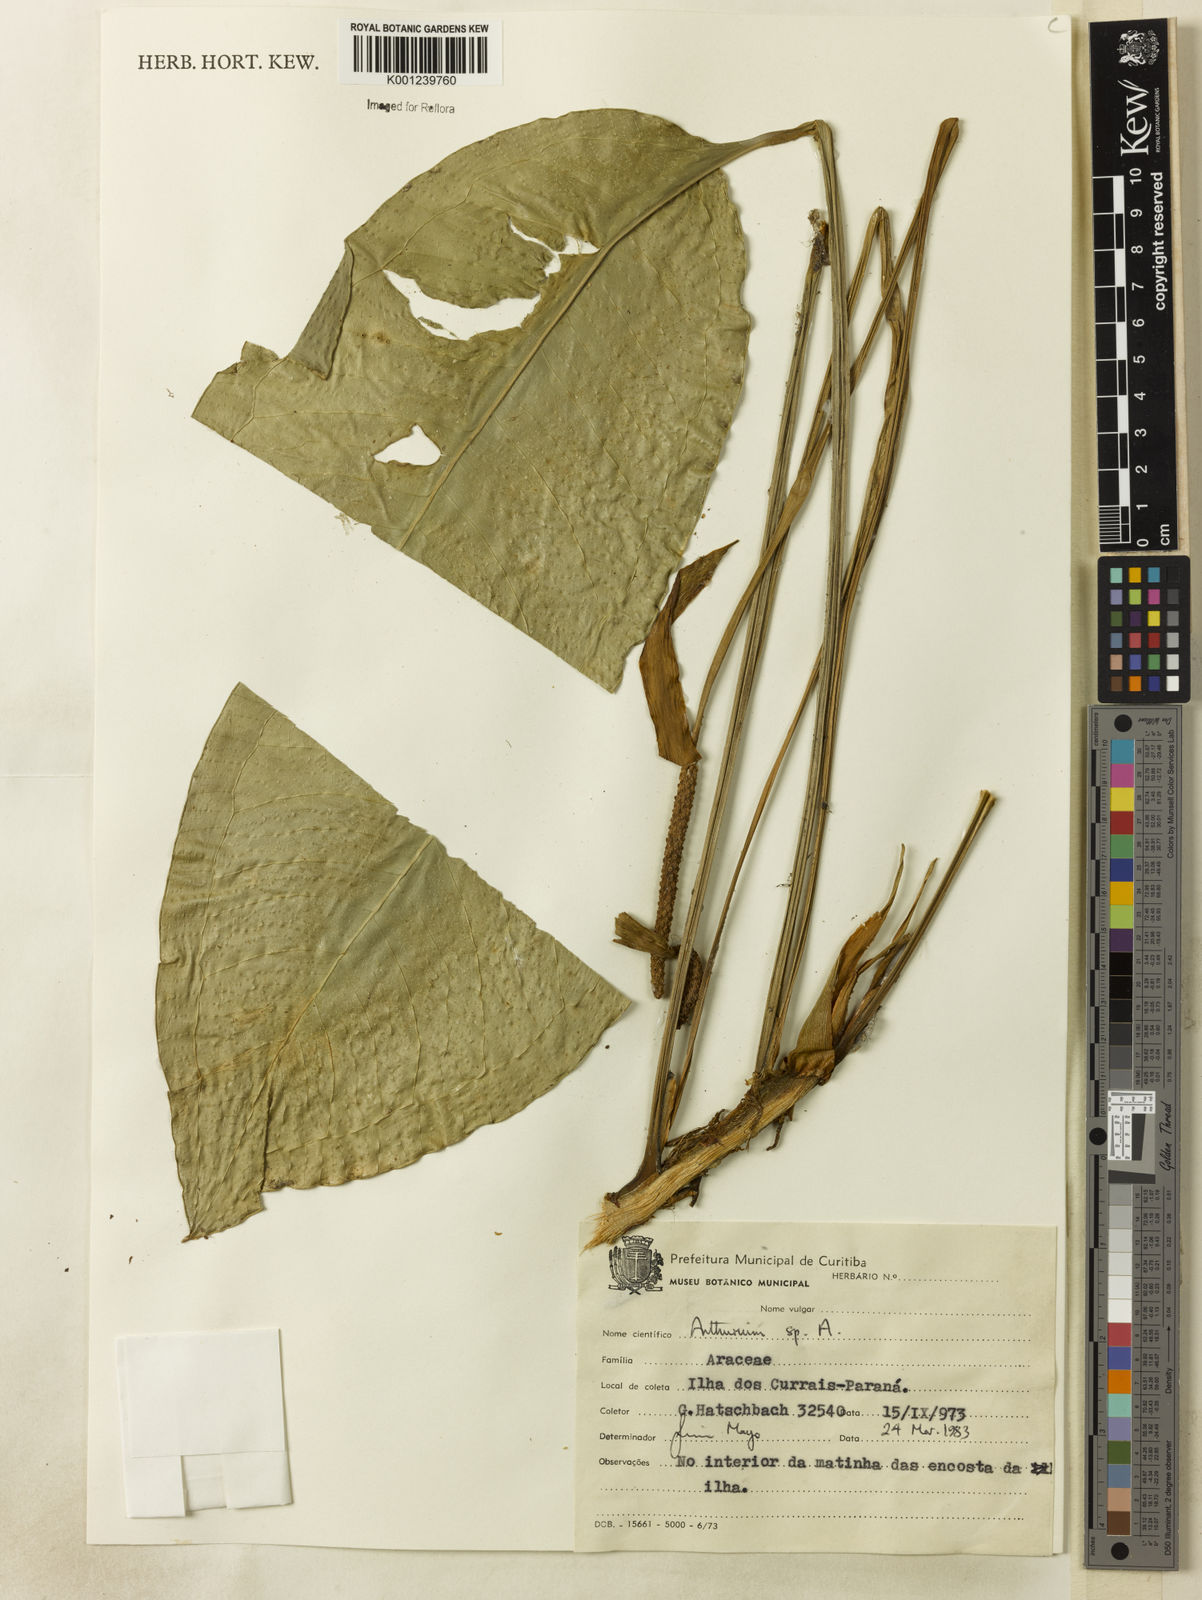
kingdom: Plantae
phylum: Tracheophyta
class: Liliopsida
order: Alismatales
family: Araceae
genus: Anthurium
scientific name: Anthurium
